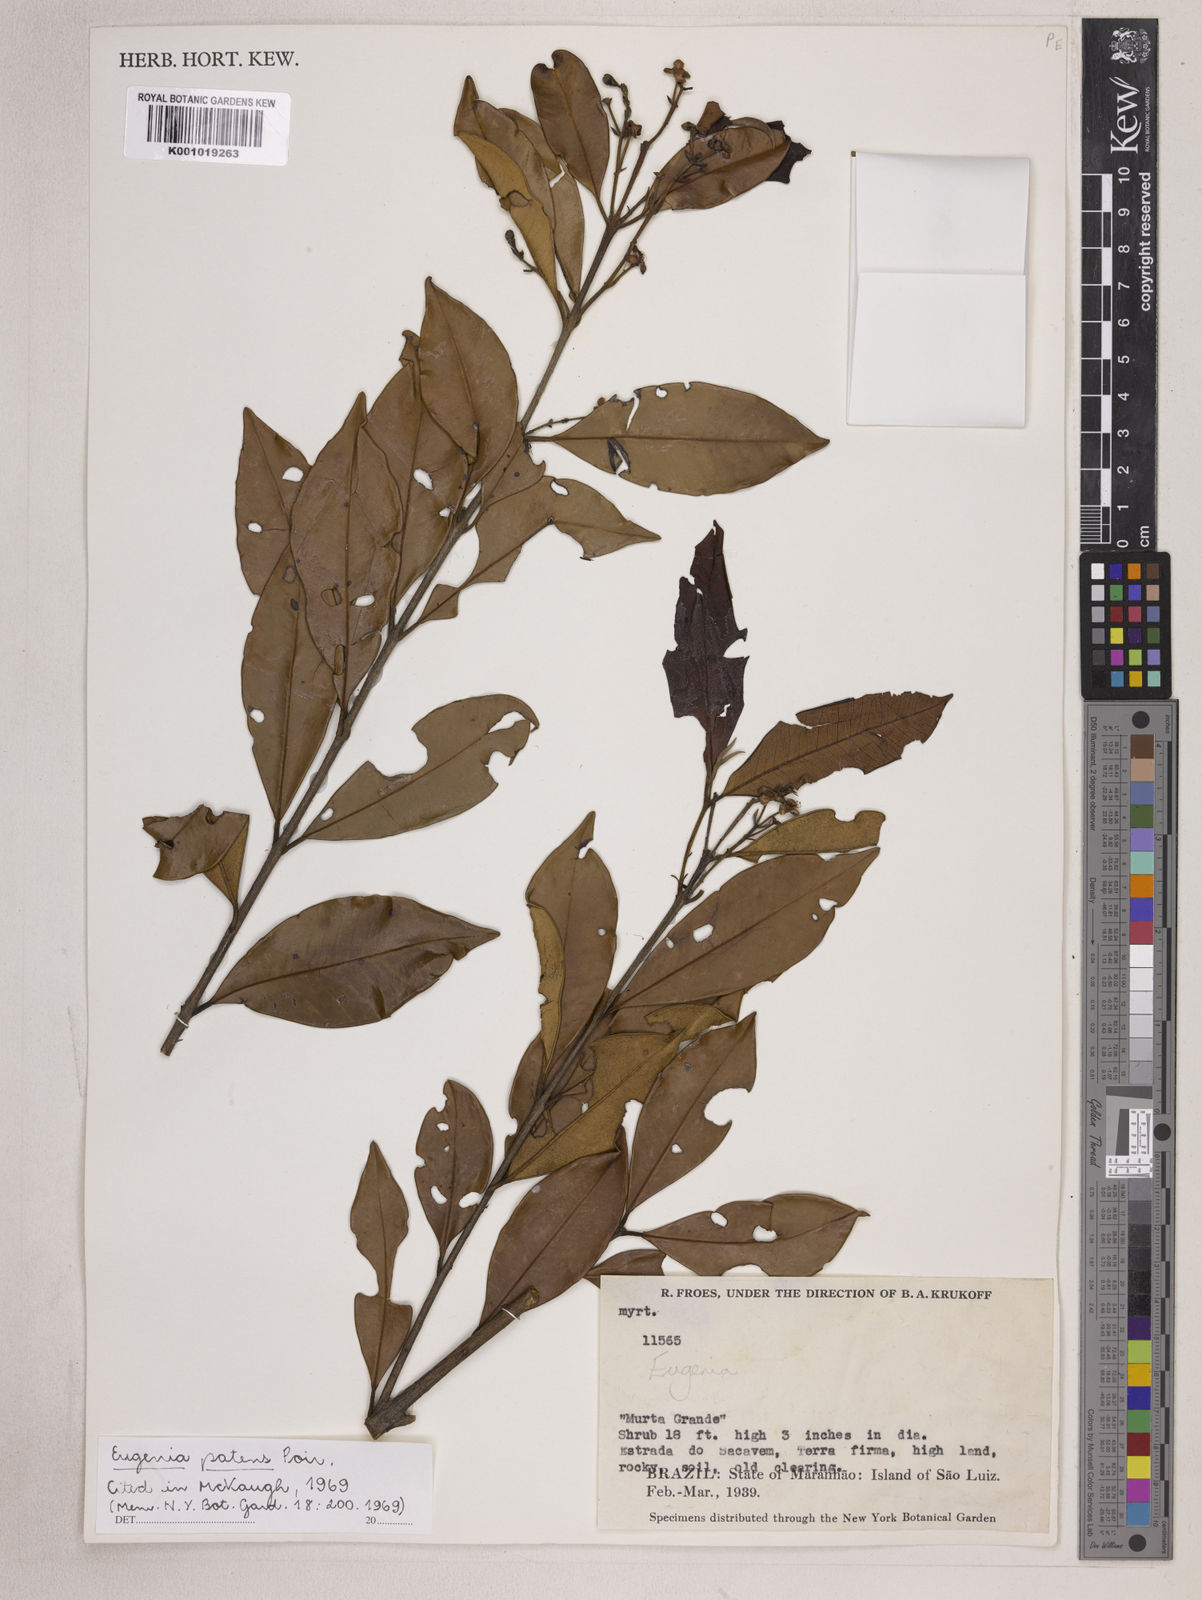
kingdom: Plantae
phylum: Tracheophyta
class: Magnoliopsida
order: Myrtales
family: Myrtaceae
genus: Eugenia
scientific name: Eugenia patens
